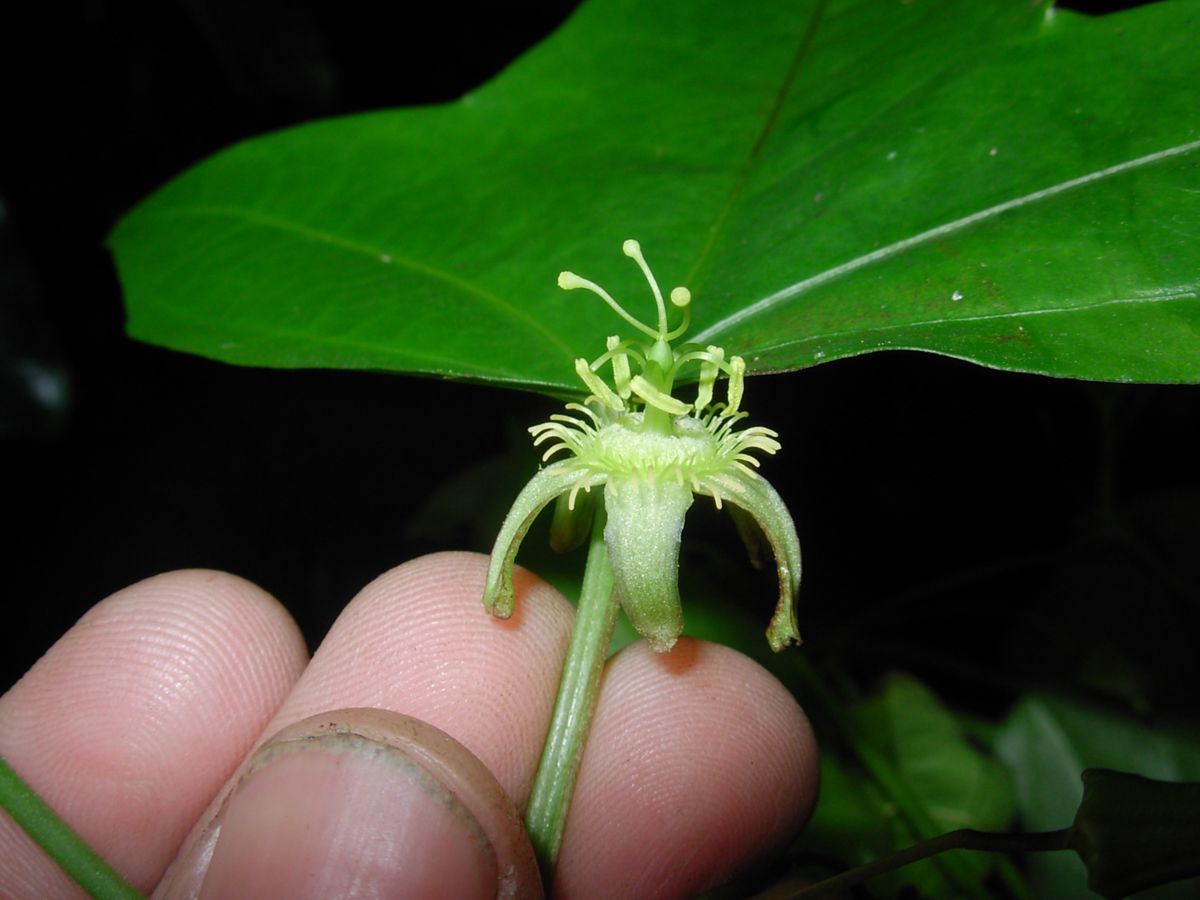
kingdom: Plantae
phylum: Tracheophyta
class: Magnoliopsida
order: Malpighiales
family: Passifloraceae
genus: Passiflora
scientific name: Passiflora eglandulosa
